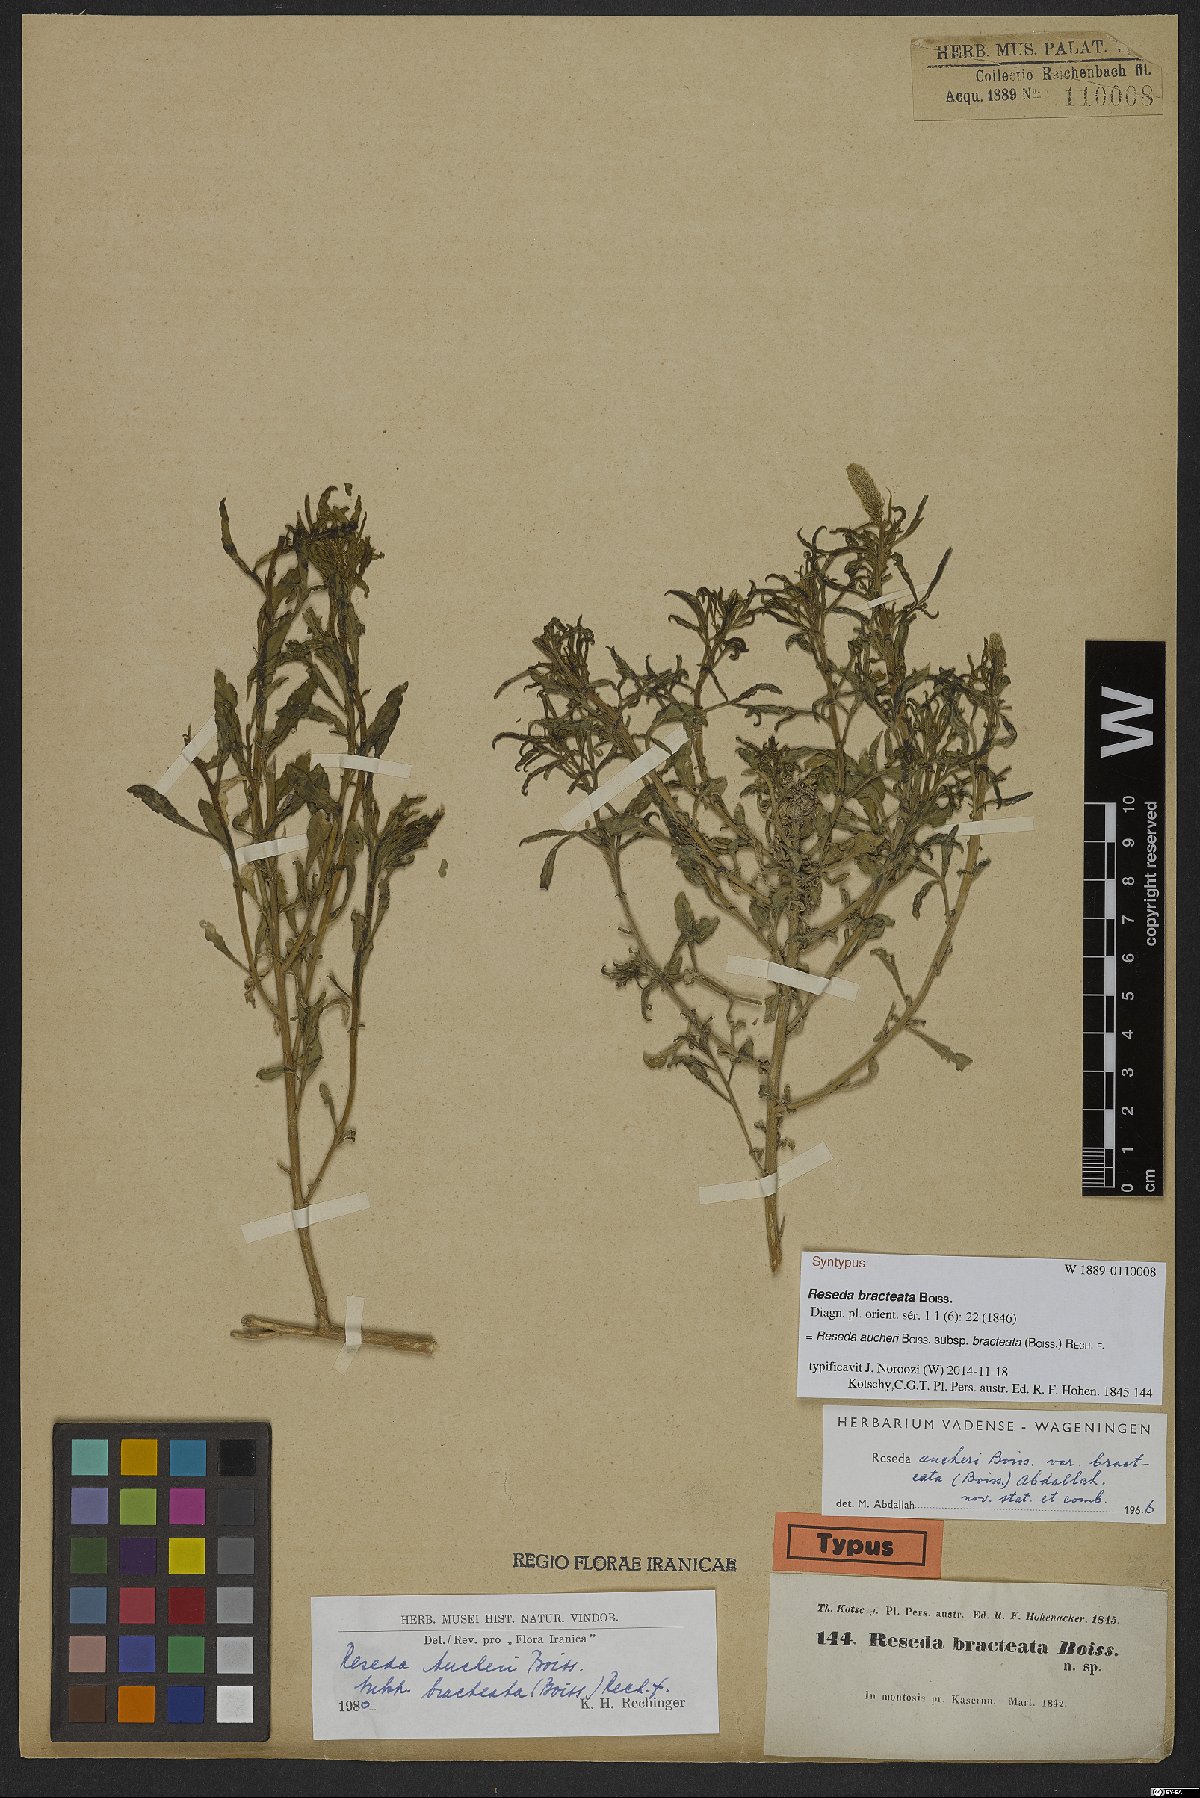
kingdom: Plantae
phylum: Tracheophyta
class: Magnoliopsida
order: Brassicales
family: Resedaceae
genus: Reseda
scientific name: Reseda aucheri
